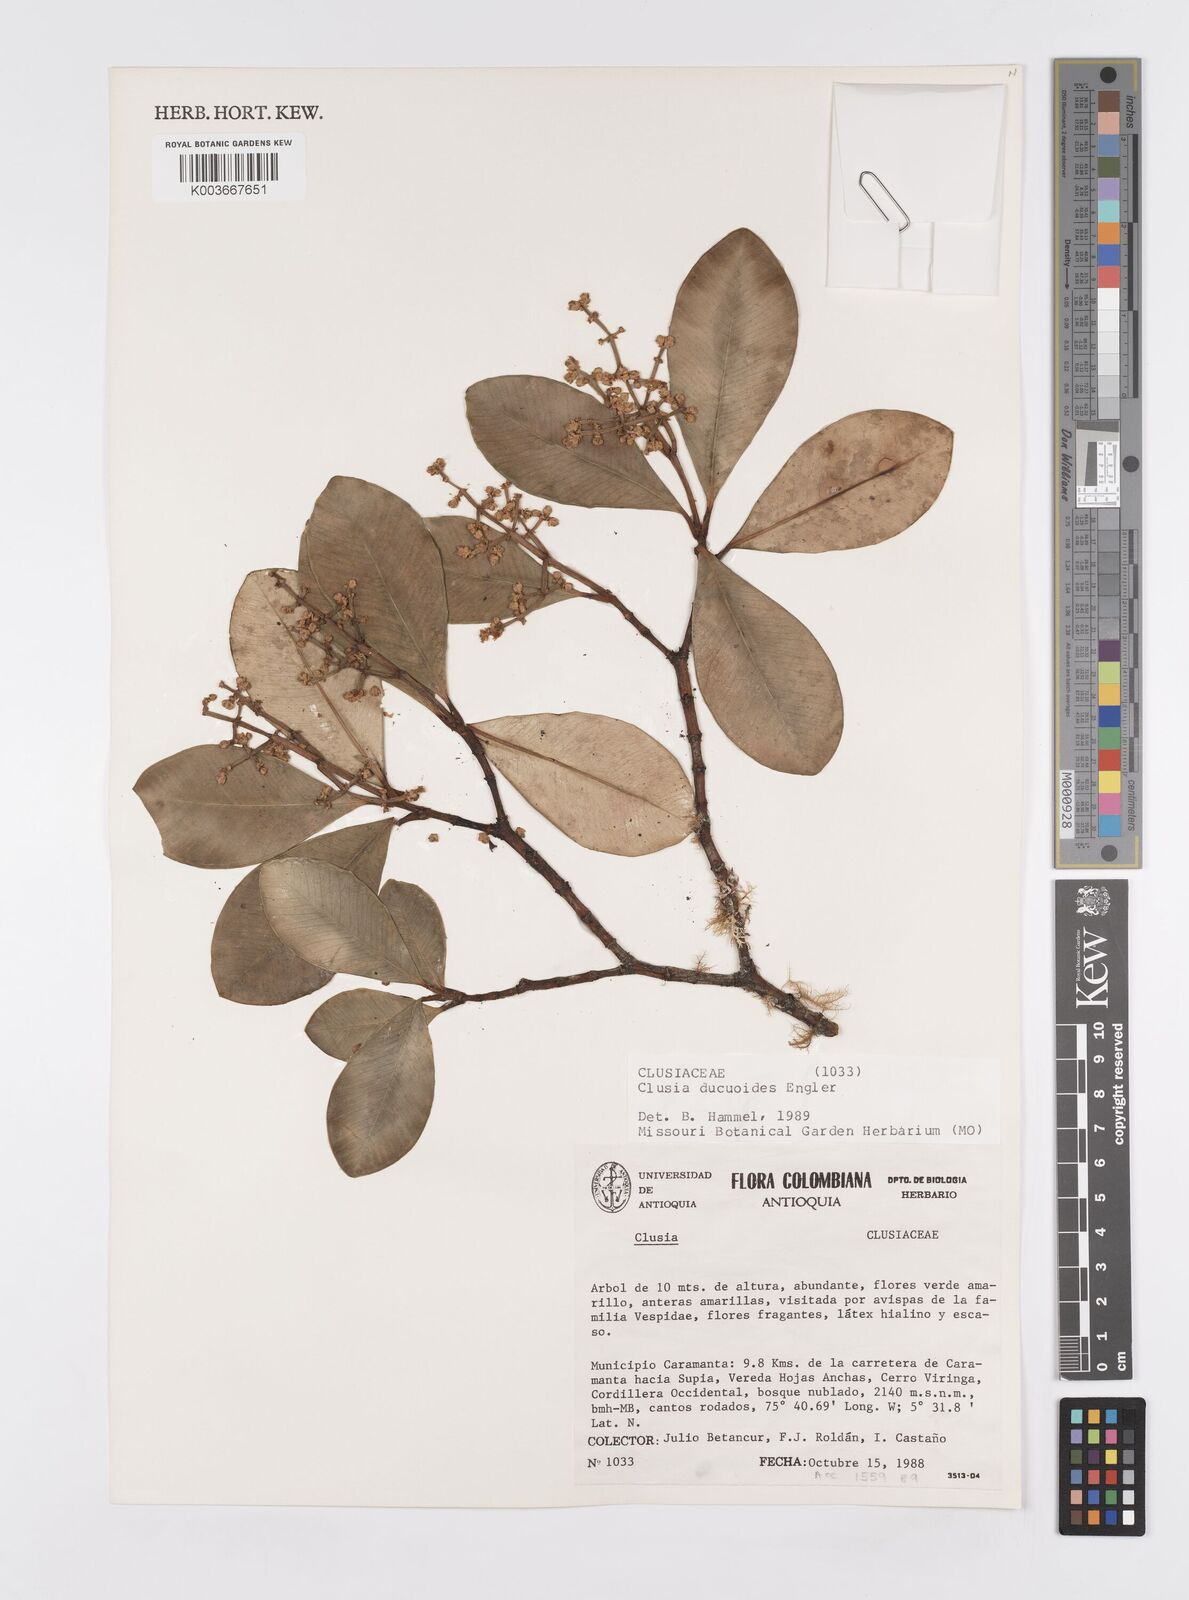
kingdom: Plantae
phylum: Tracheophyta
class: Magnoliopsida
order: Malpighiales
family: Clusiaceae
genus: Clusia
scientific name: Clusia ducuoides
